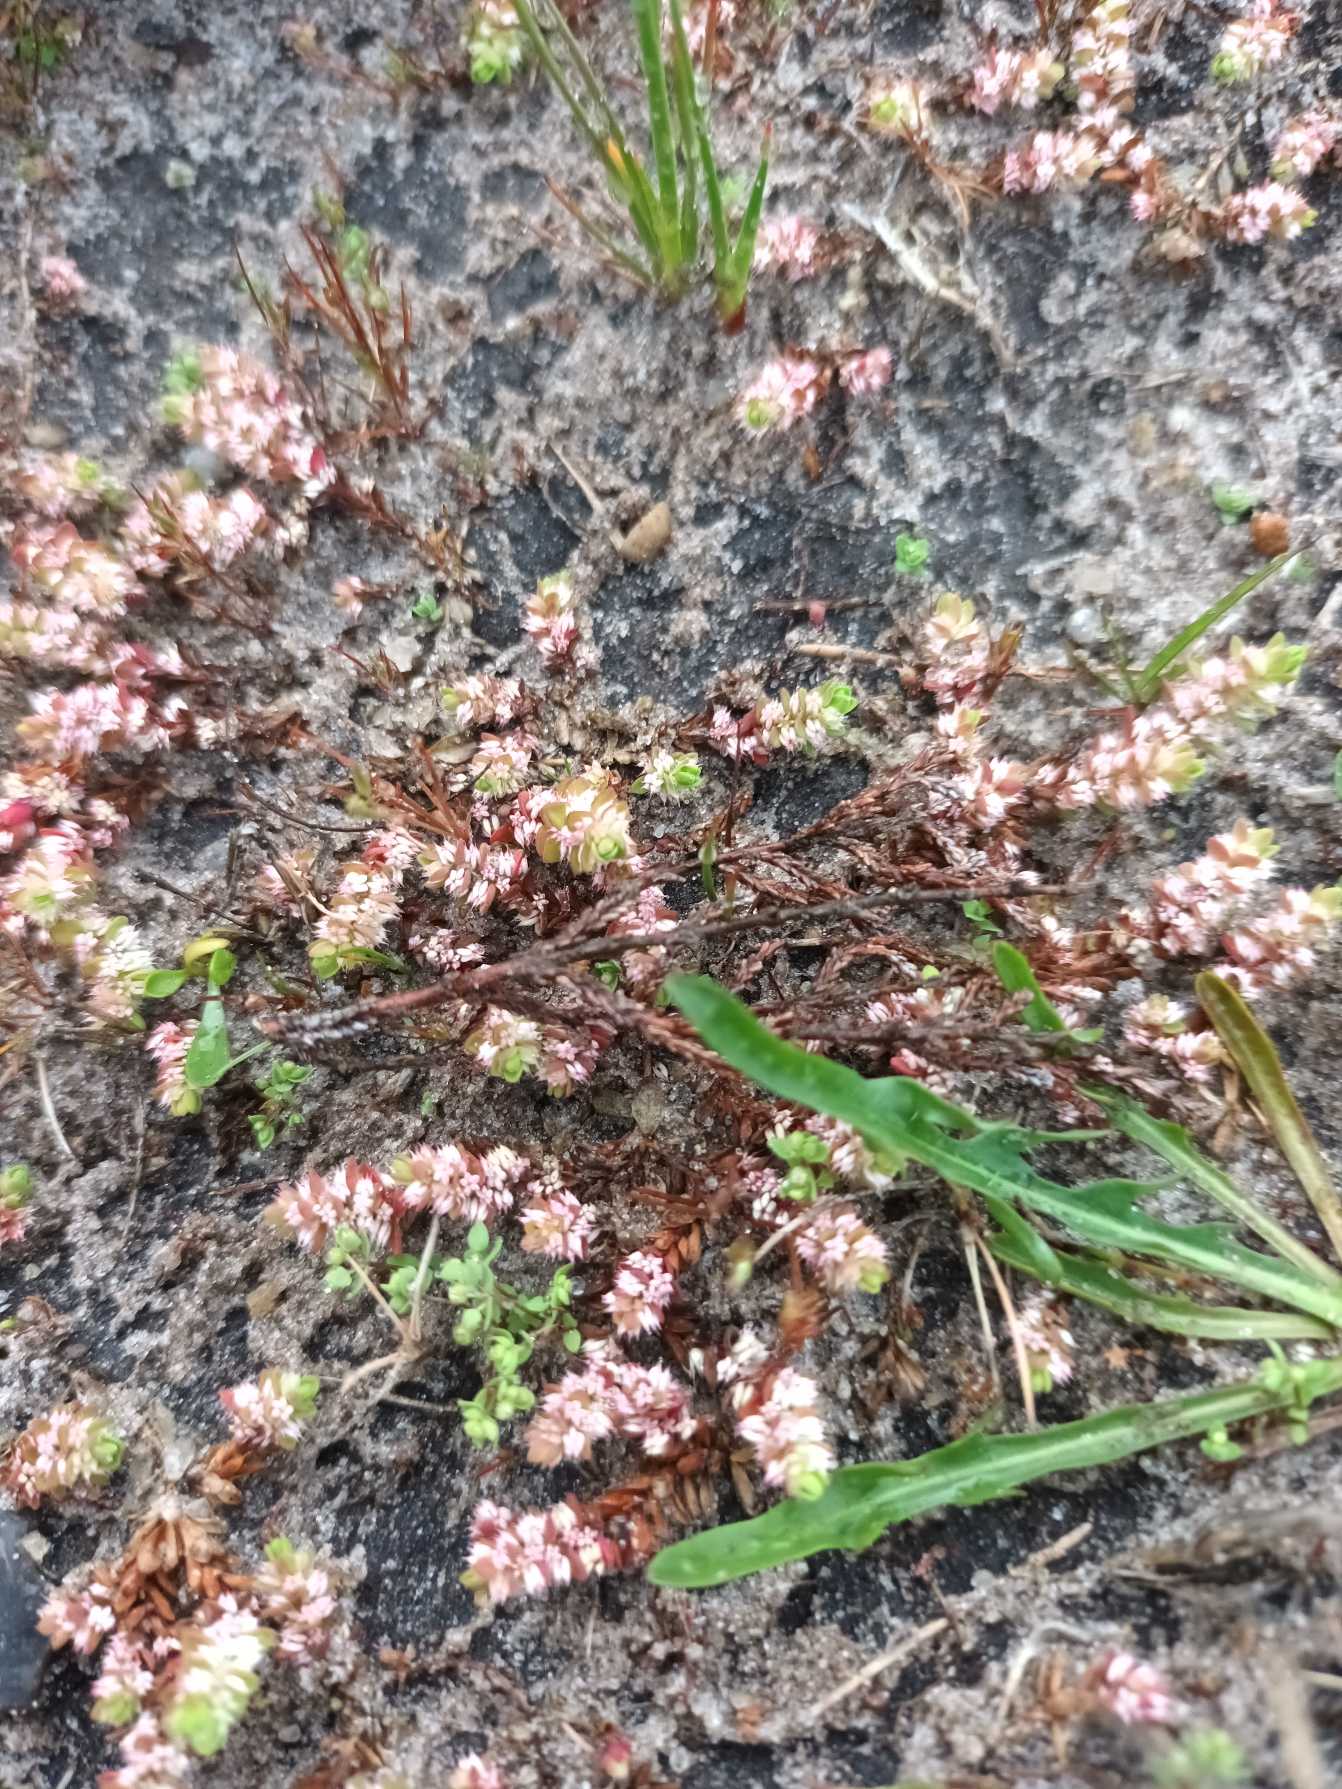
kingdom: Plantae
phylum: Tracheophyta
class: Magnoliopsida
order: Caryophyllales
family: Caryophyllaceae
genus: Illecebrum
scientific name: Illecebrum verticillatum
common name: Bruskbæger
